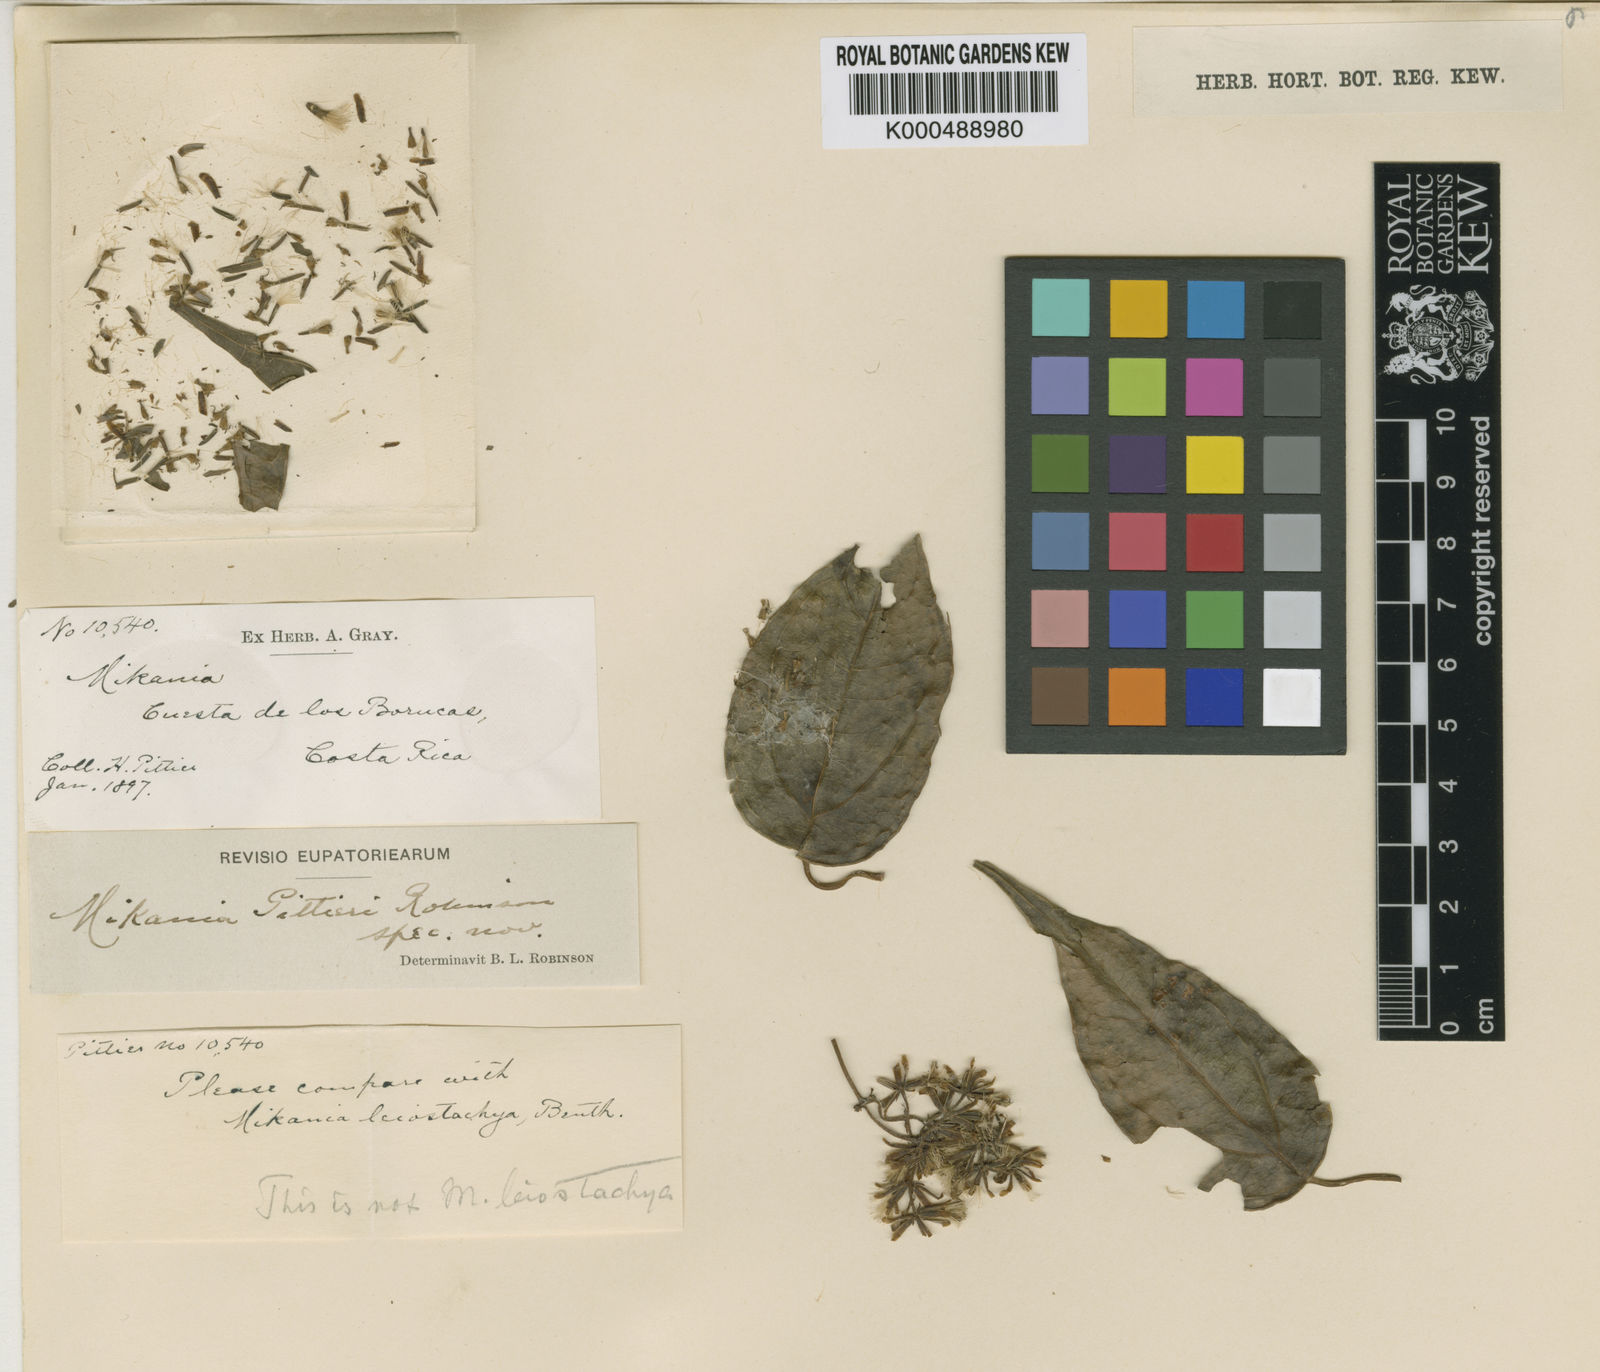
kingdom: Plantae
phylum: Tracheophyta
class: Magnoliopsida
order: Asterales
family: Asteraceae
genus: Mikania
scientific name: Mikania pittieri
